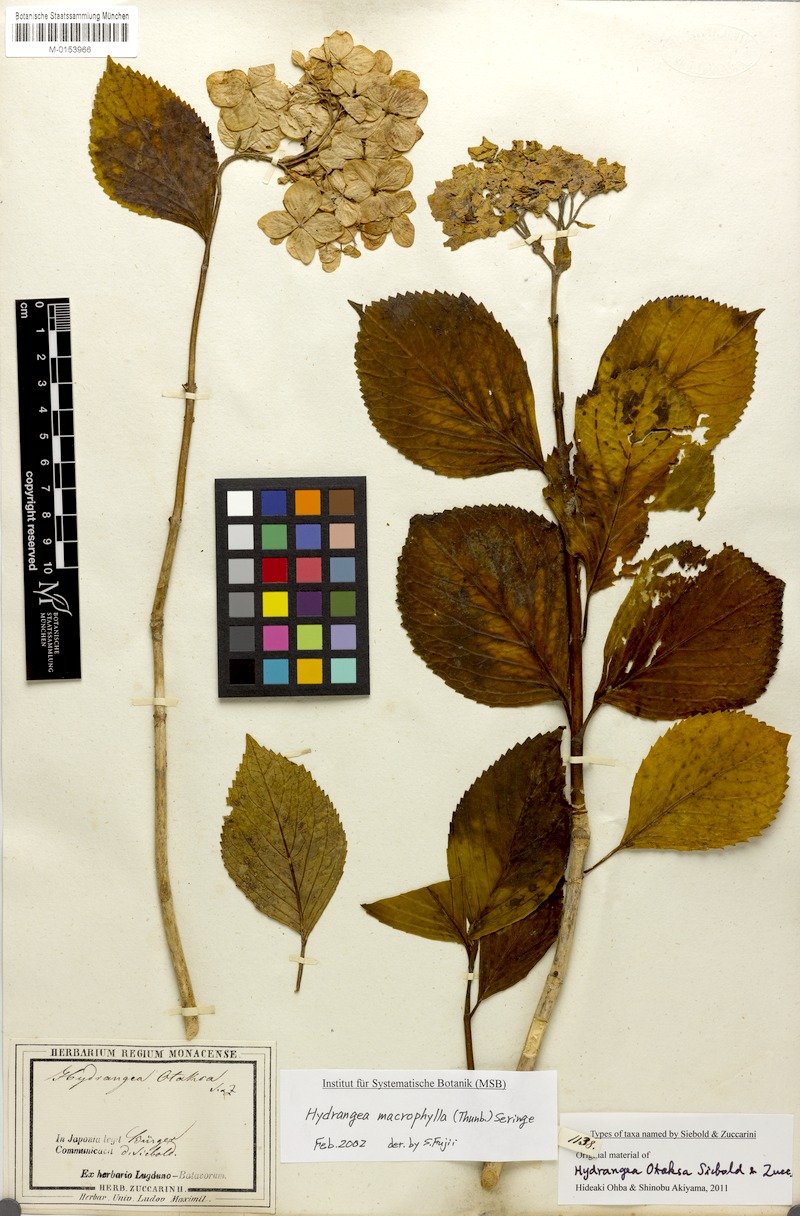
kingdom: Plantae
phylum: Tracheophyta
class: Magnoliopsida
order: Cornales
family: Hydrangeaceae
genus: Hydrangea
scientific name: Hydrangea macrophylla
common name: Hydrangea
